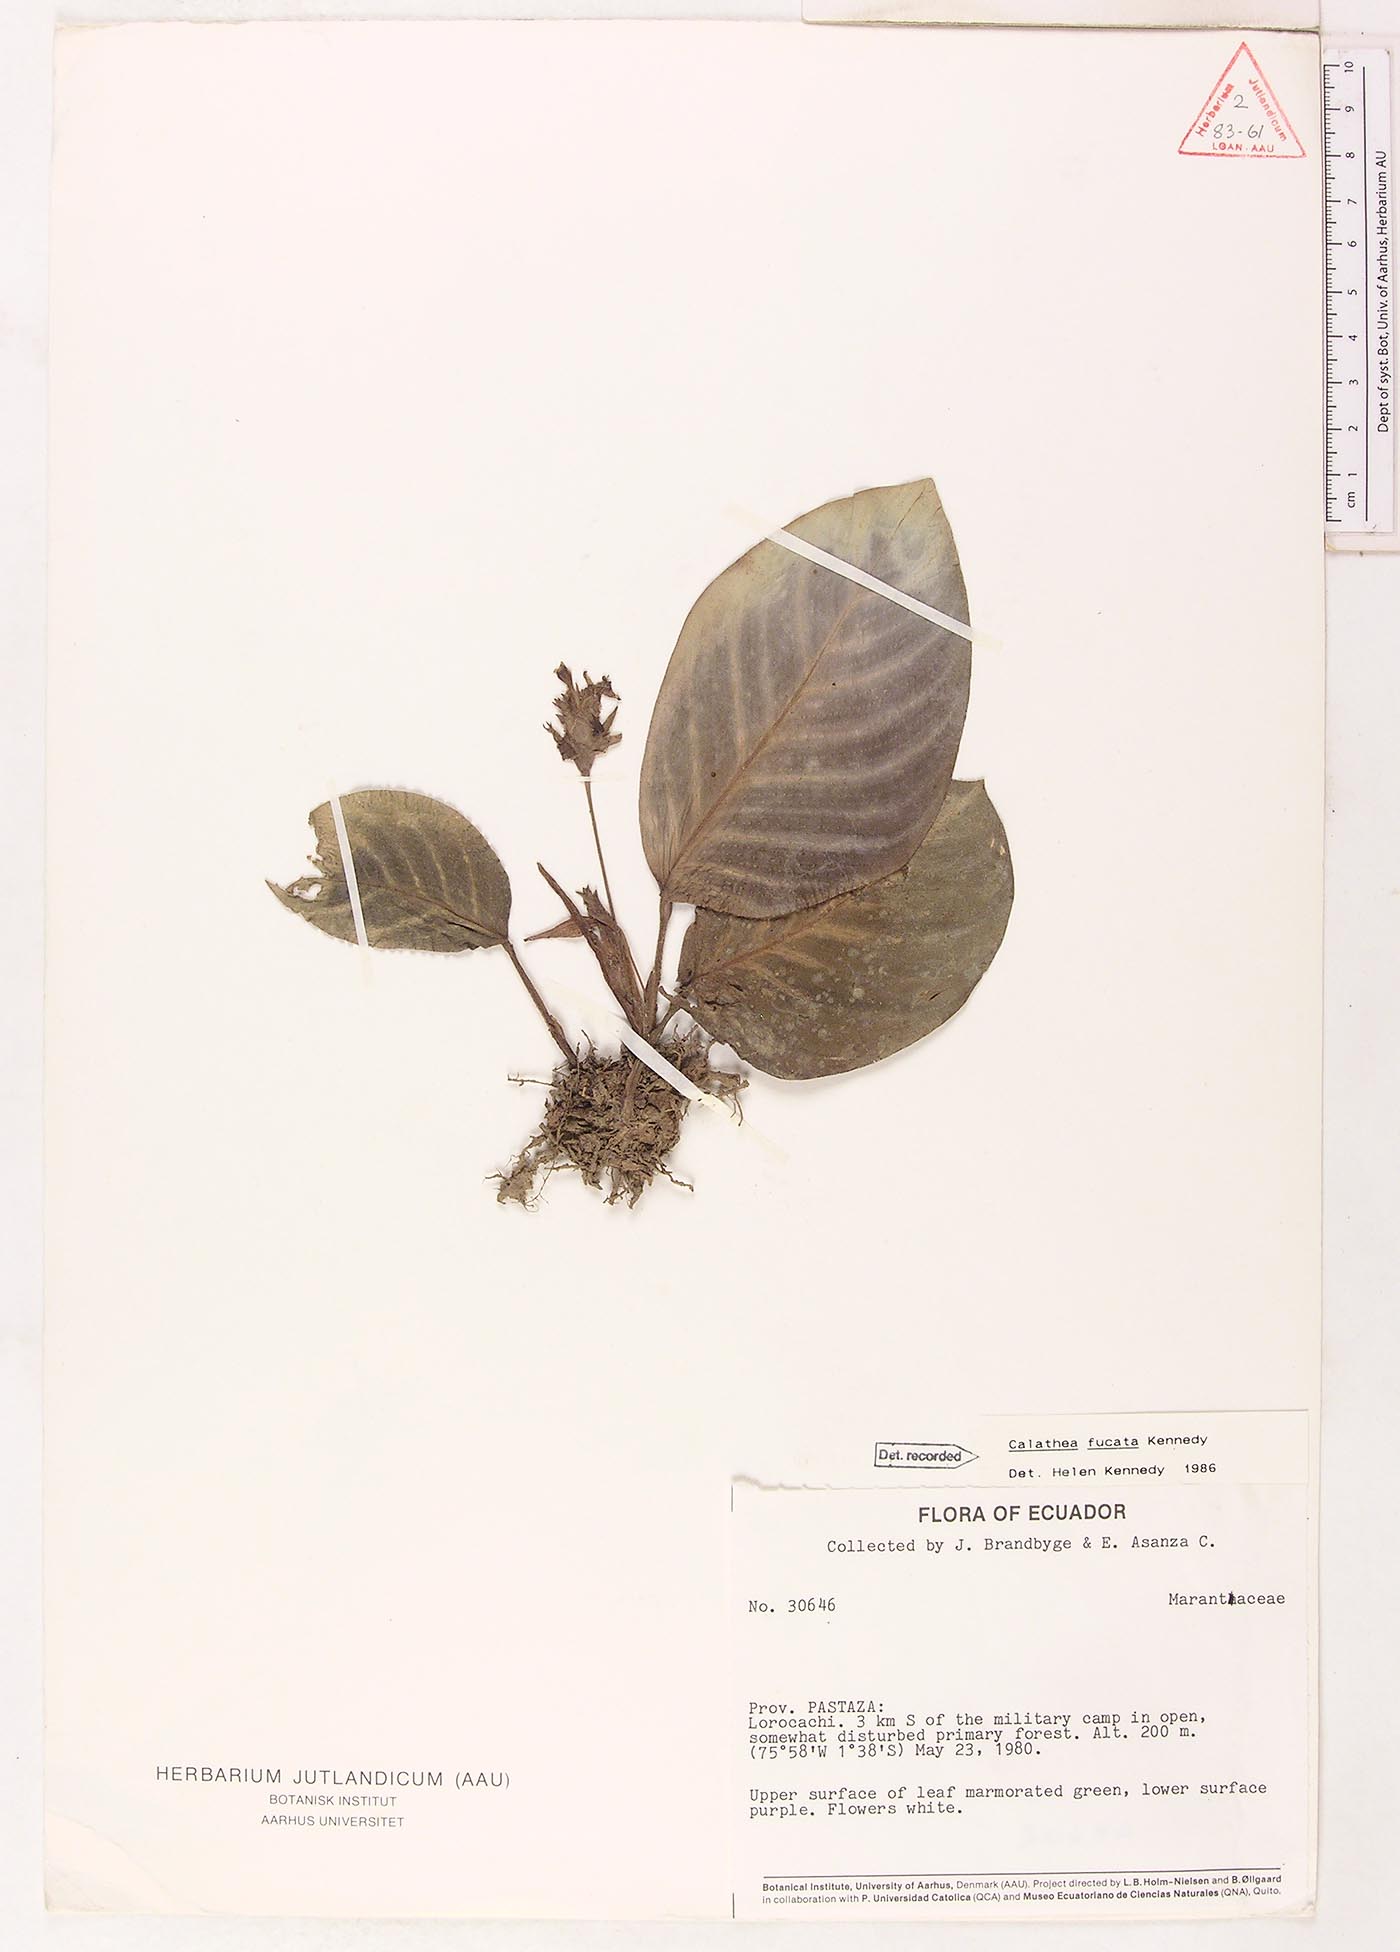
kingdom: Plantae
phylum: Tracheophyta
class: Liliopsida
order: Zingiberales
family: Marantaceae
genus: Goeppertia
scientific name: Goeppertia fucata
